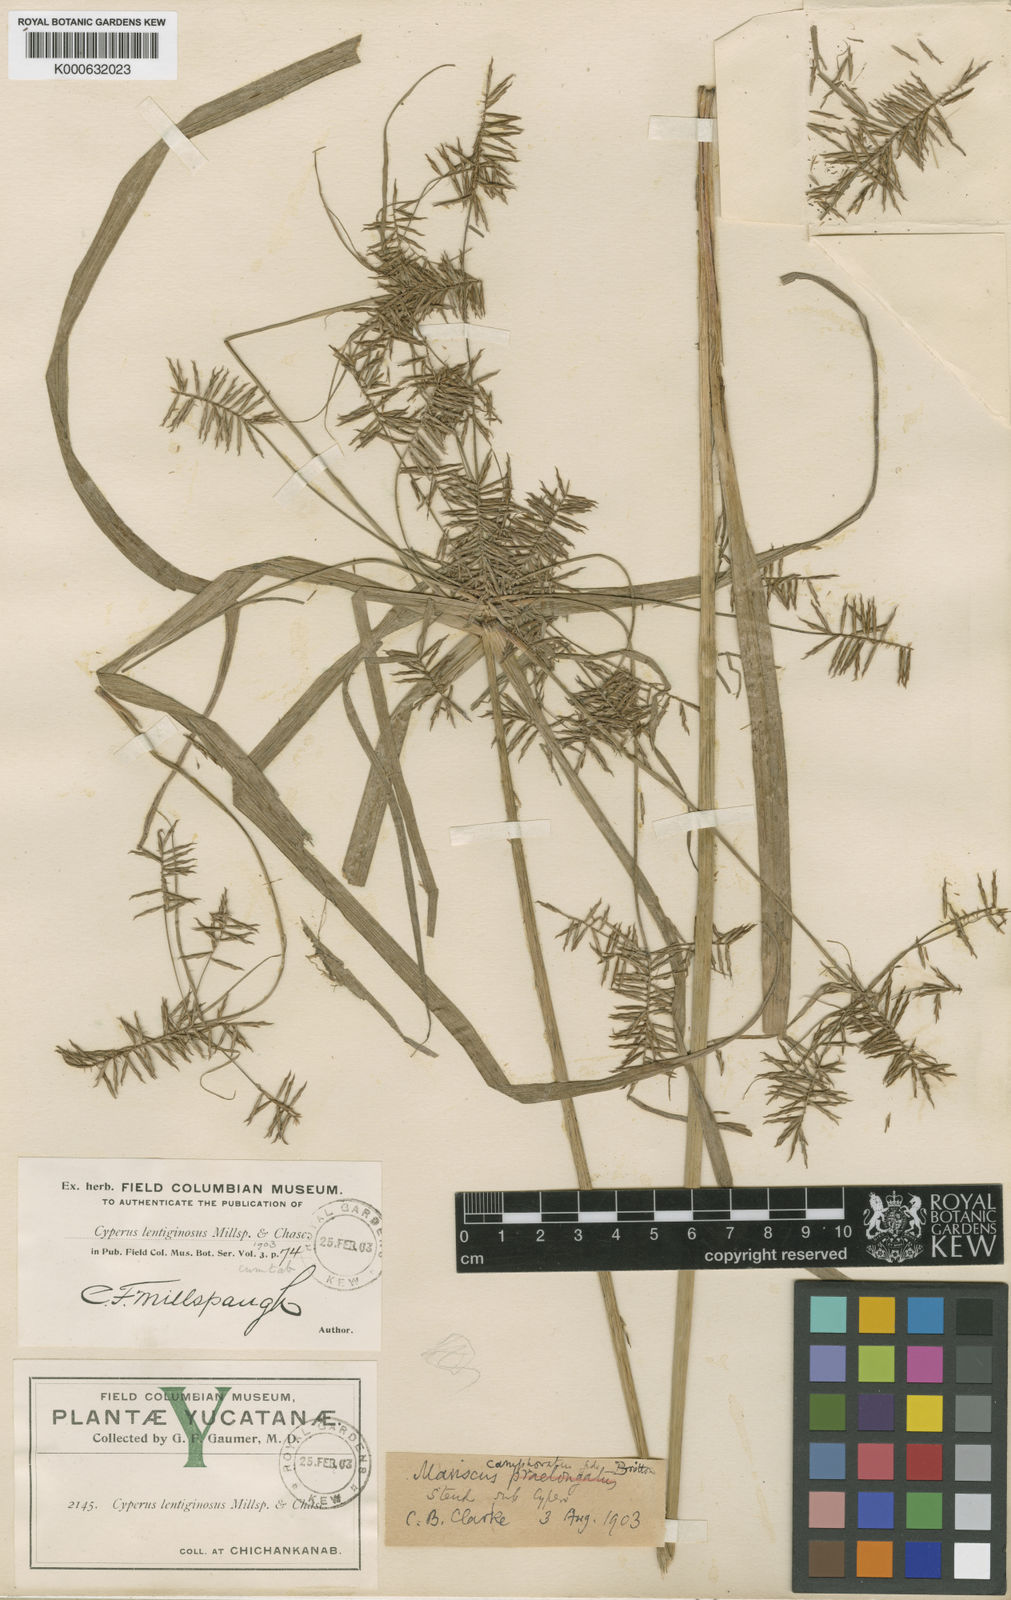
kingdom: Plantae
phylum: Tracheophyta
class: Liliopsida
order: Poales
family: Cyperaceae
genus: Cyperus
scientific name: Cyperus tenuis
